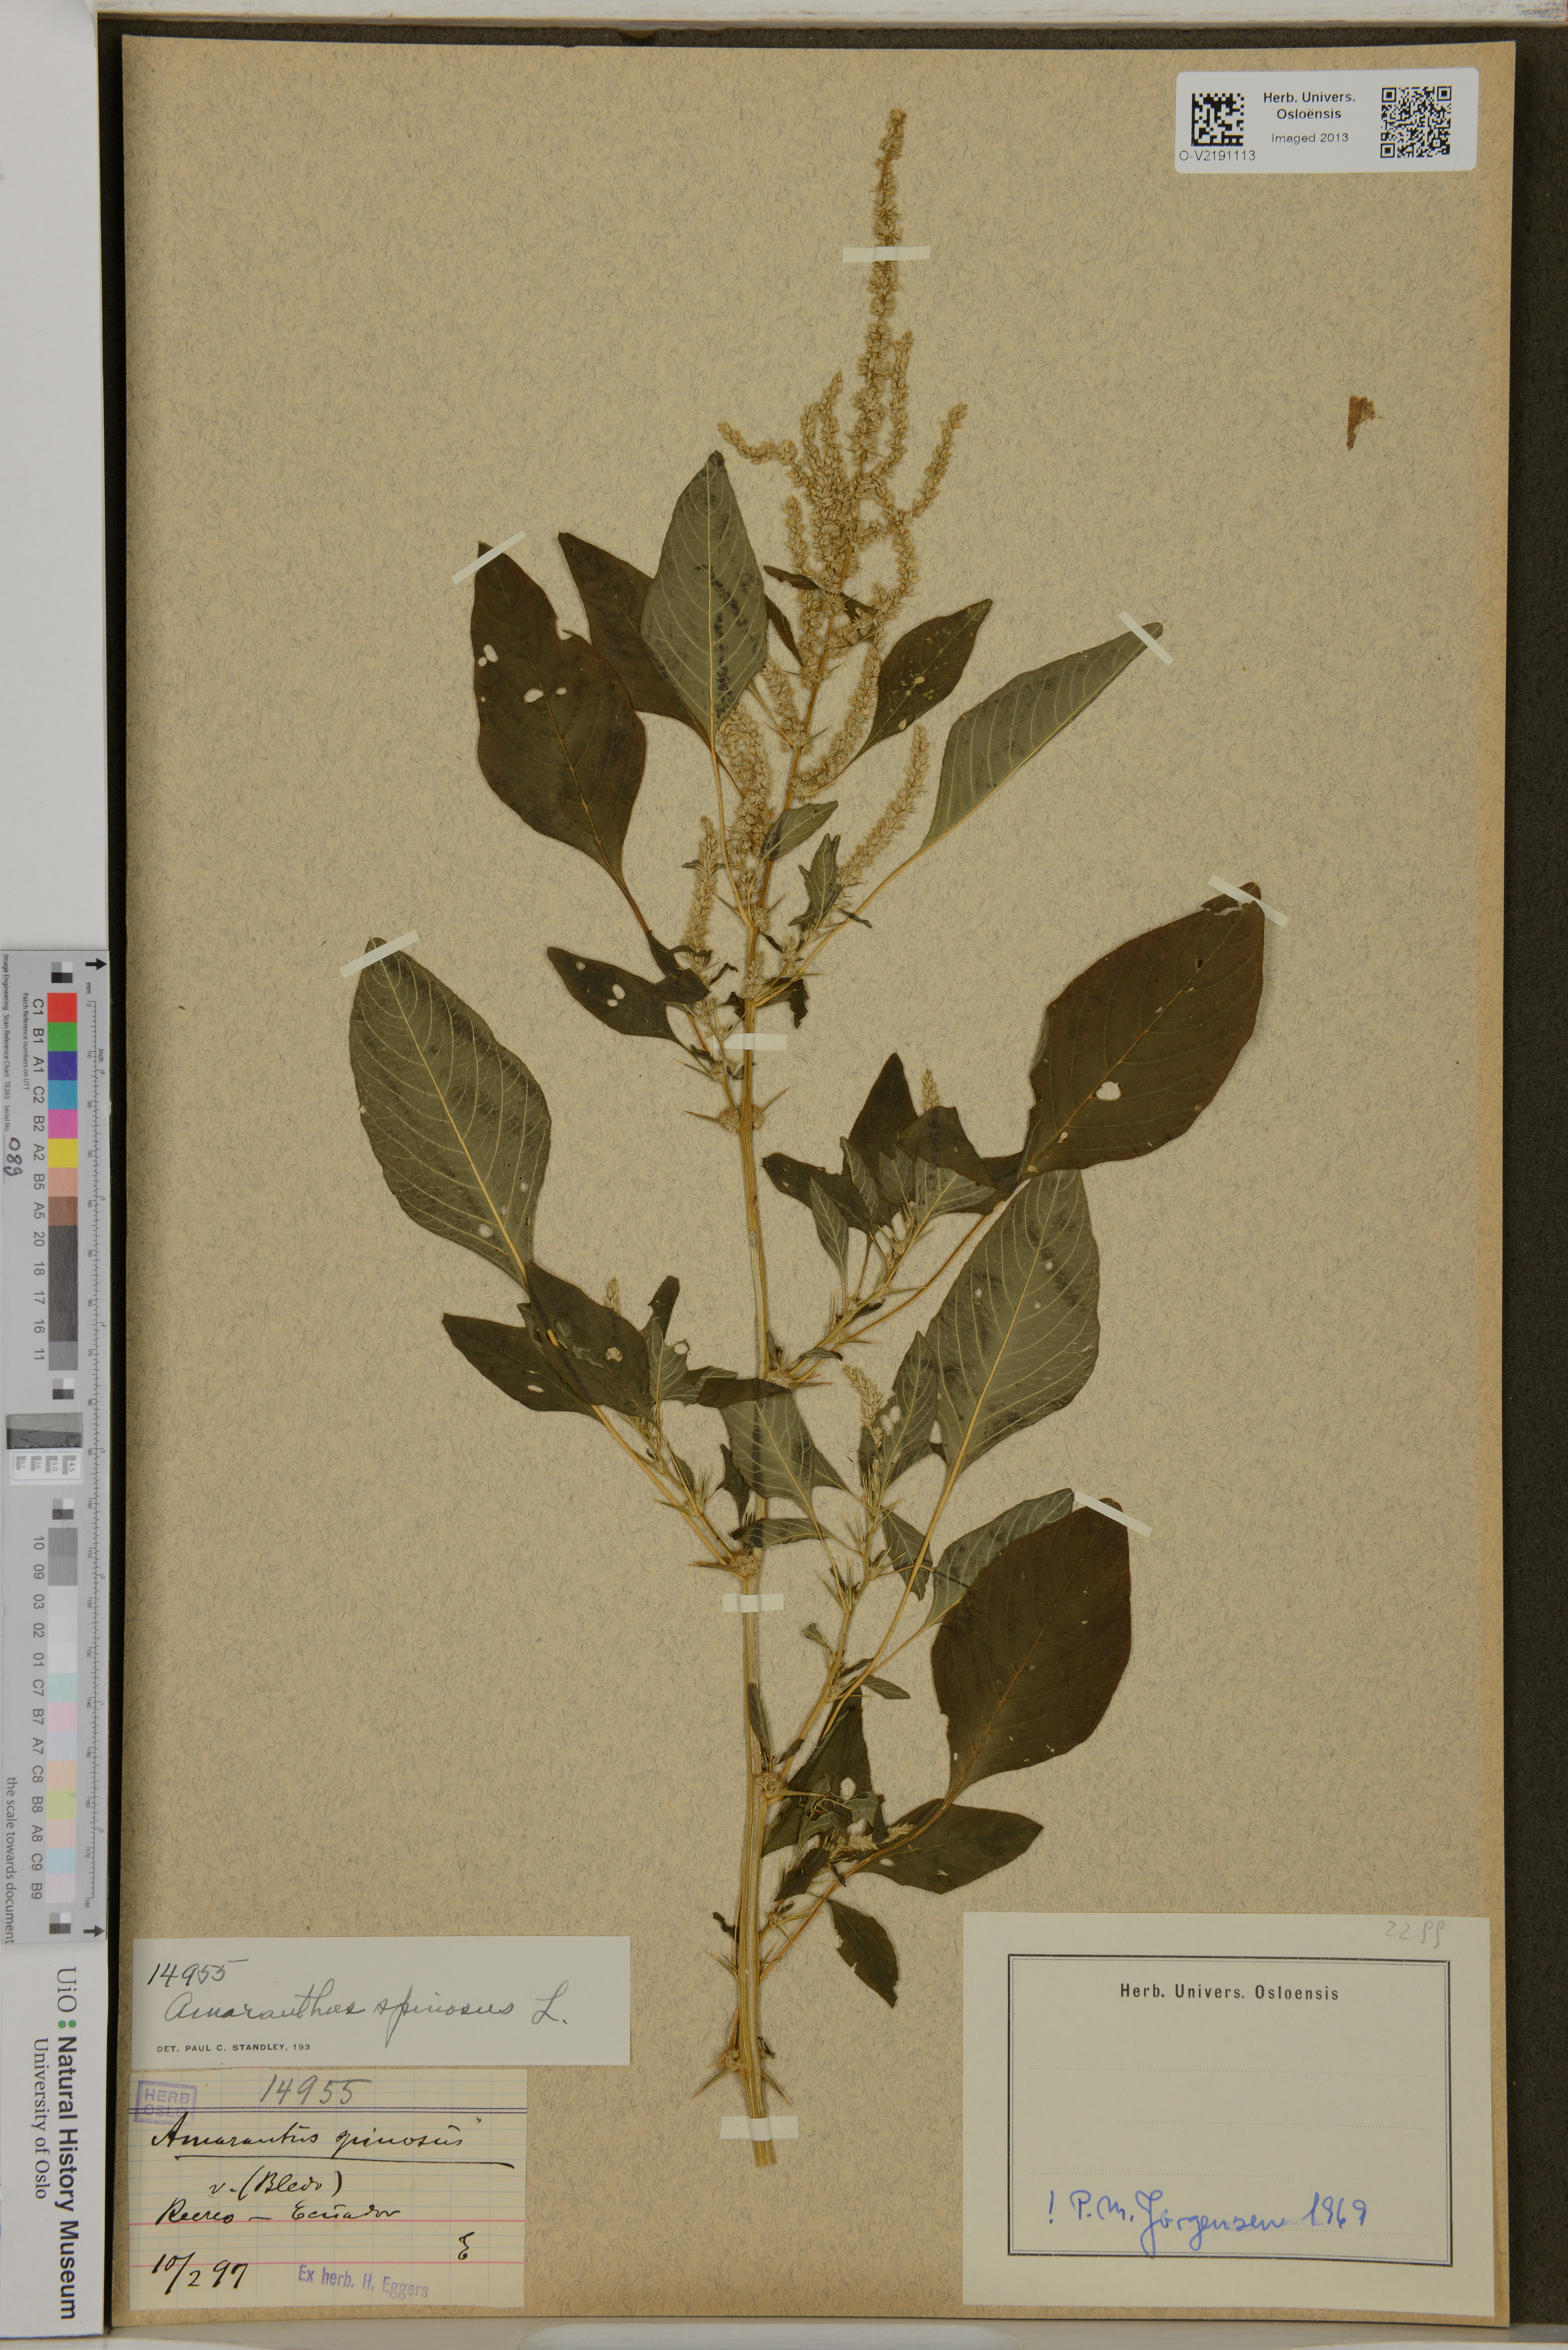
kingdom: Plantae
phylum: Tracheophyta
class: Magnoliopsida
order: Caryophyllales
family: Amaranthaceae
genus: Amaranthus
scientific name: Amaranthus spinosus
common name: Spiny amaranth
